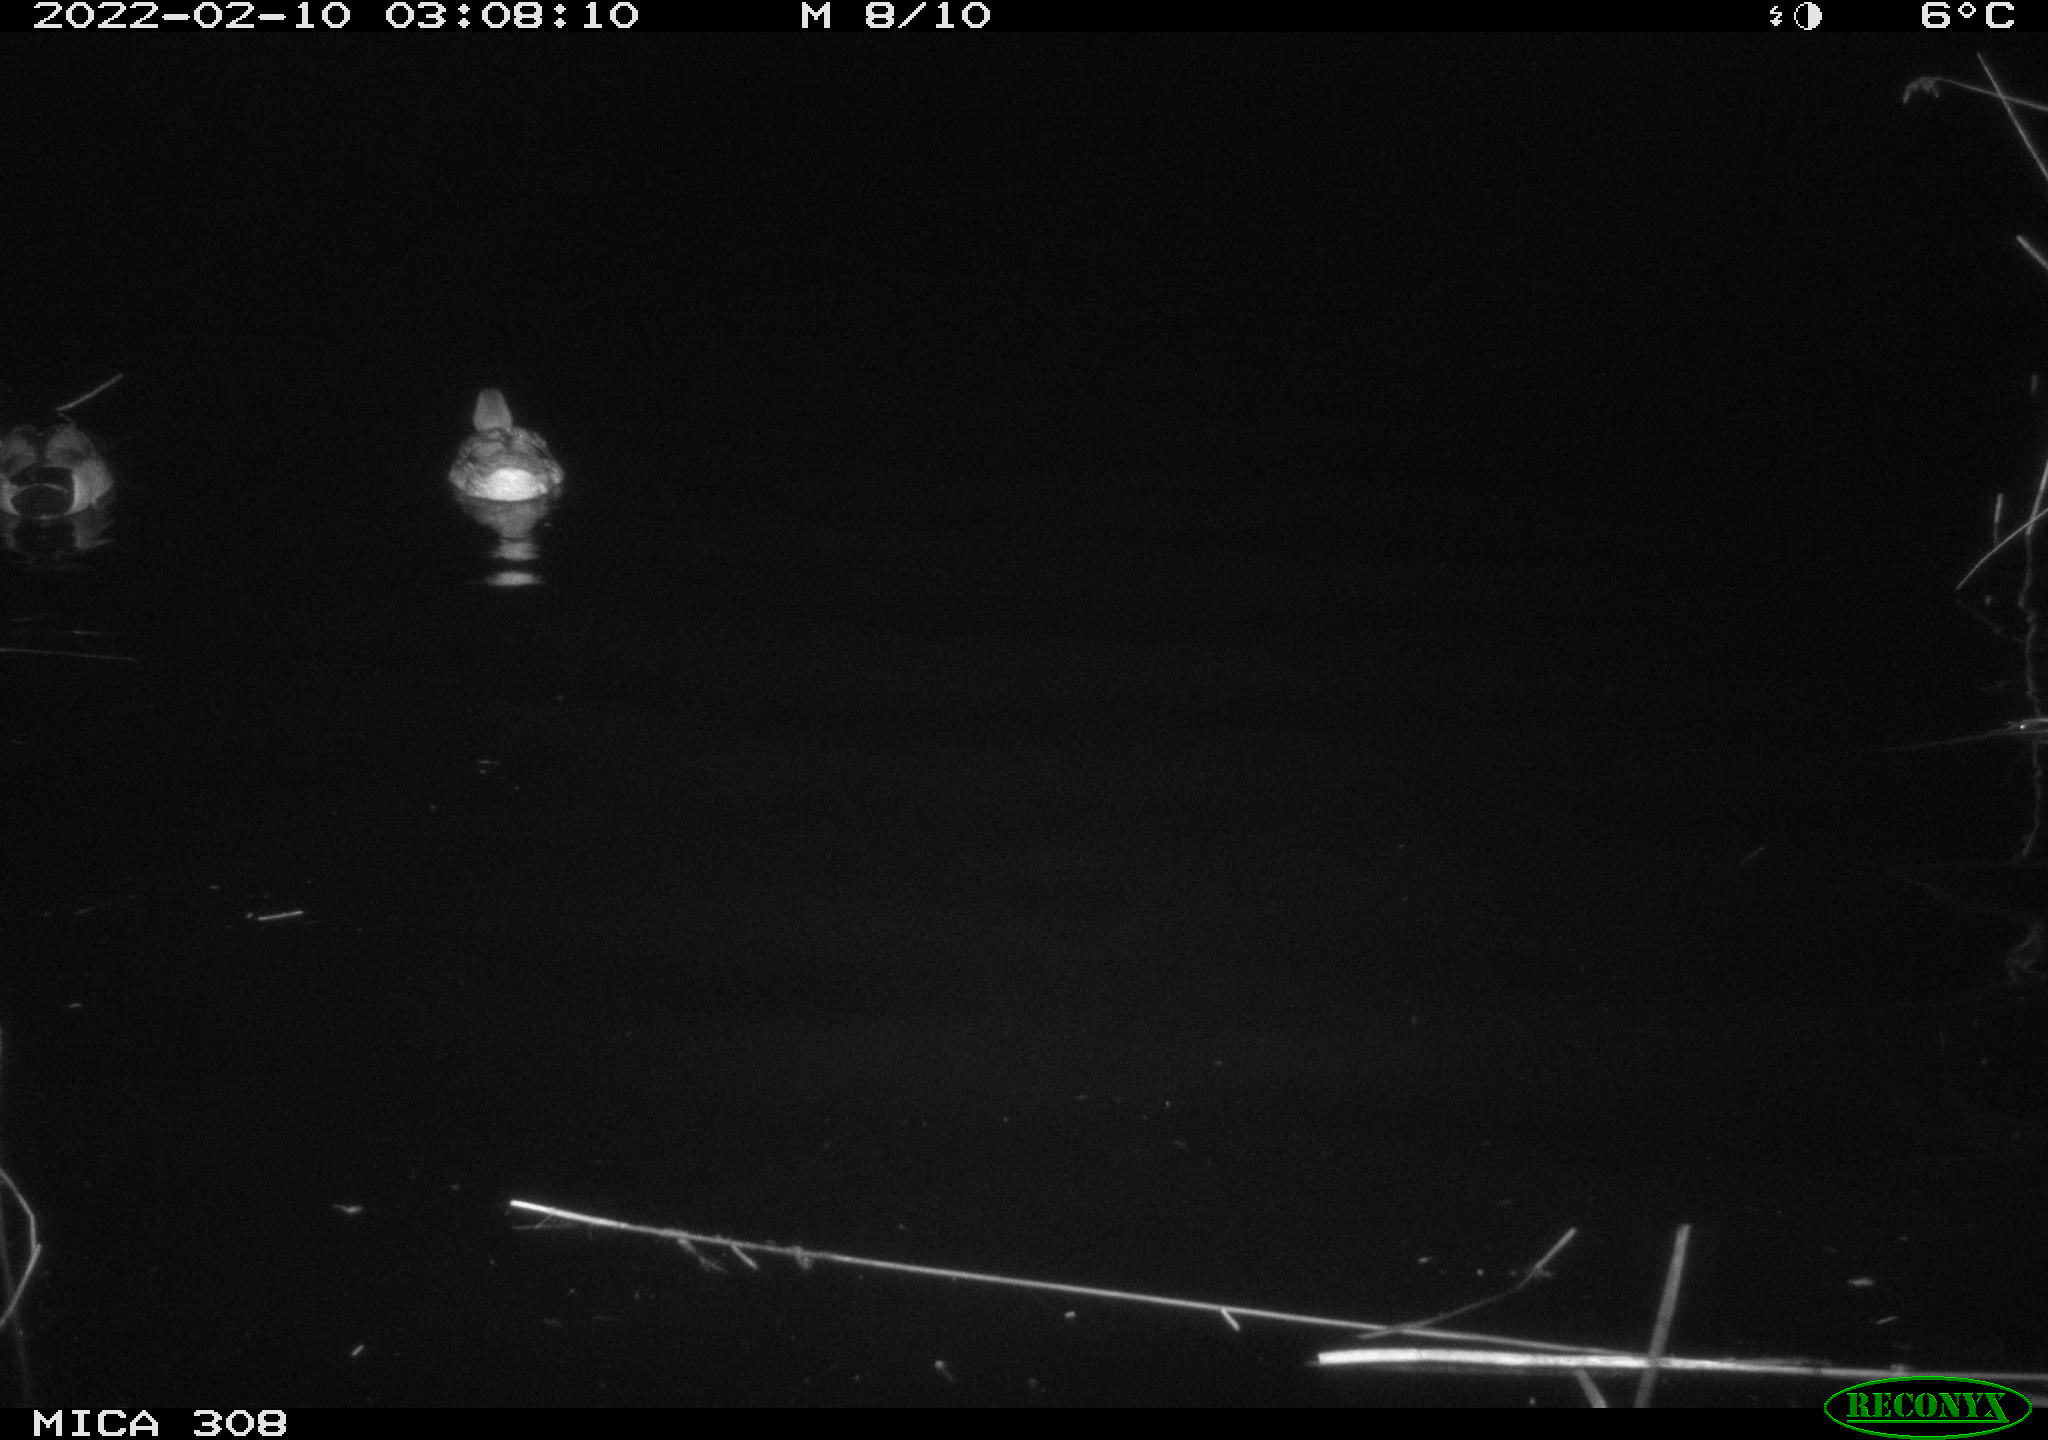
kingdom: Animalia
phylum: Chordata
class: Aves
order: Anseriformes
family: Anatidae
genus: Anas
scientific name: Anas platyrhynchos
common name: Mallard
